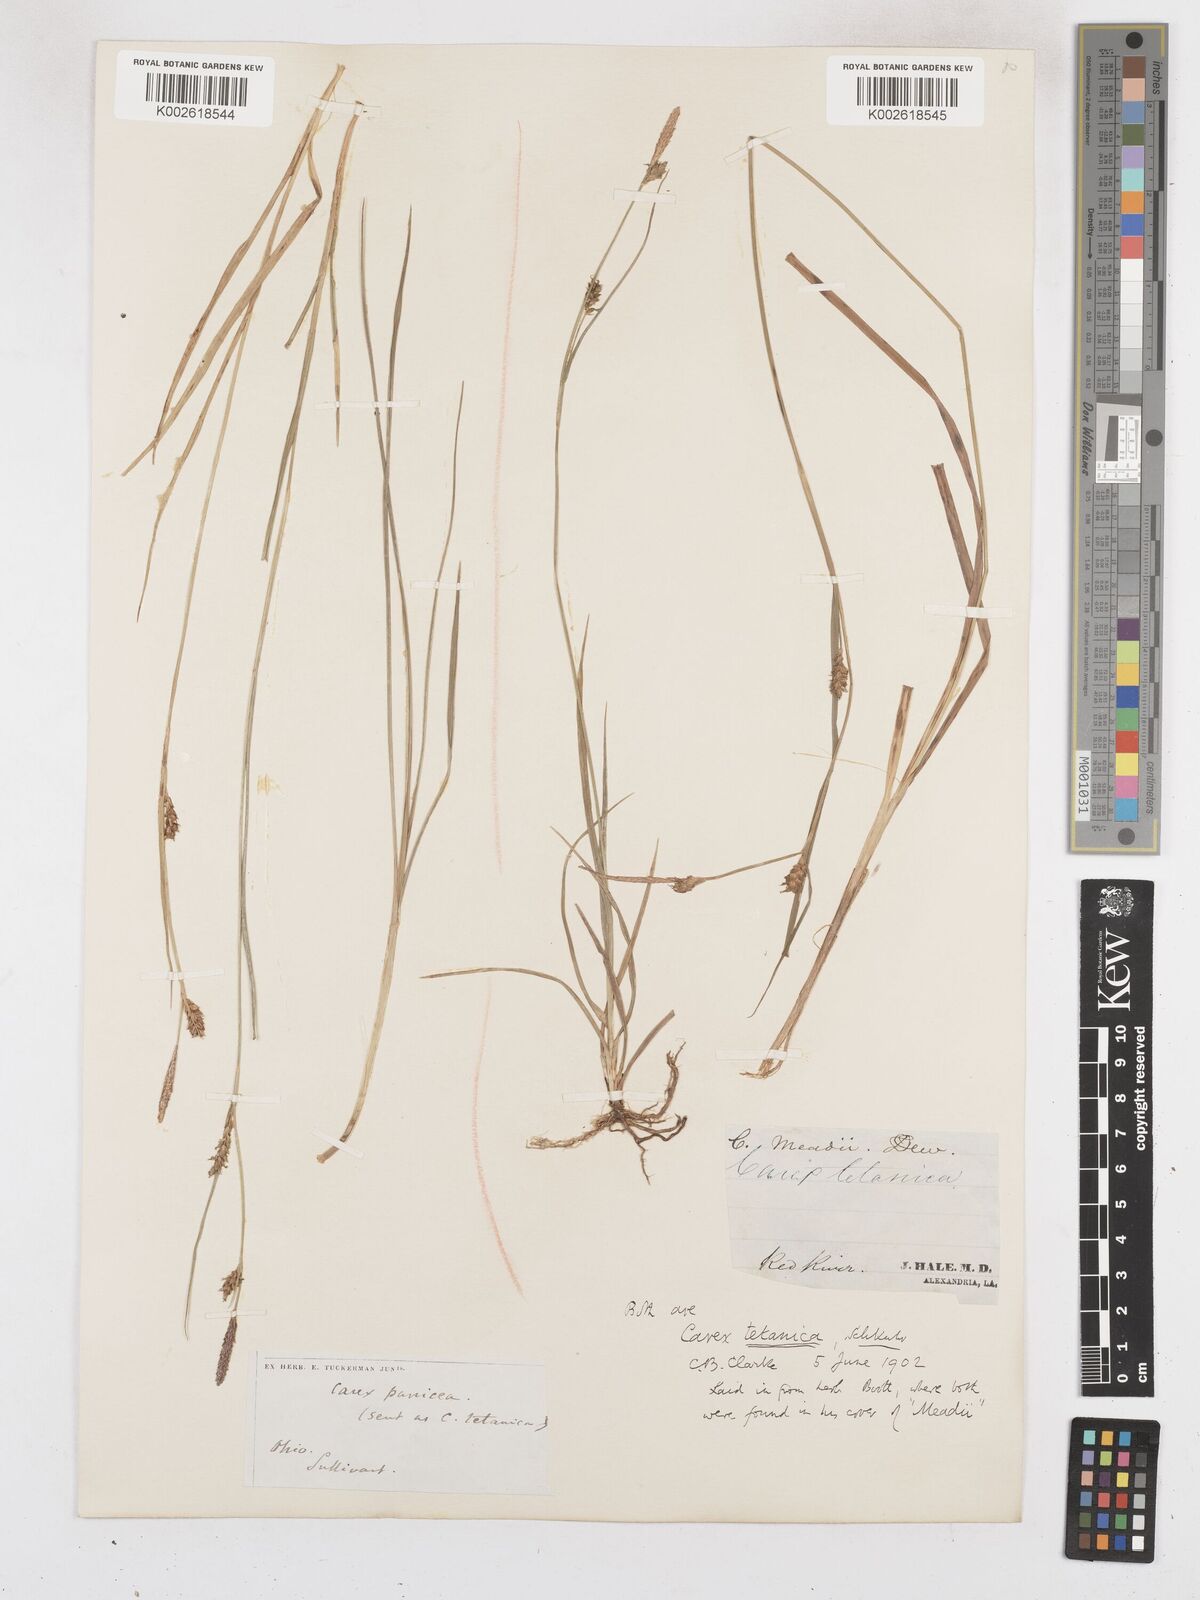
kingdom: Plantae
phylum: Tracheophyta
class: Liliopsida
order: Poales
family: Cyperaceae
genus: Carex
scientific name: Carex meadii
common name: Mead's sedge
